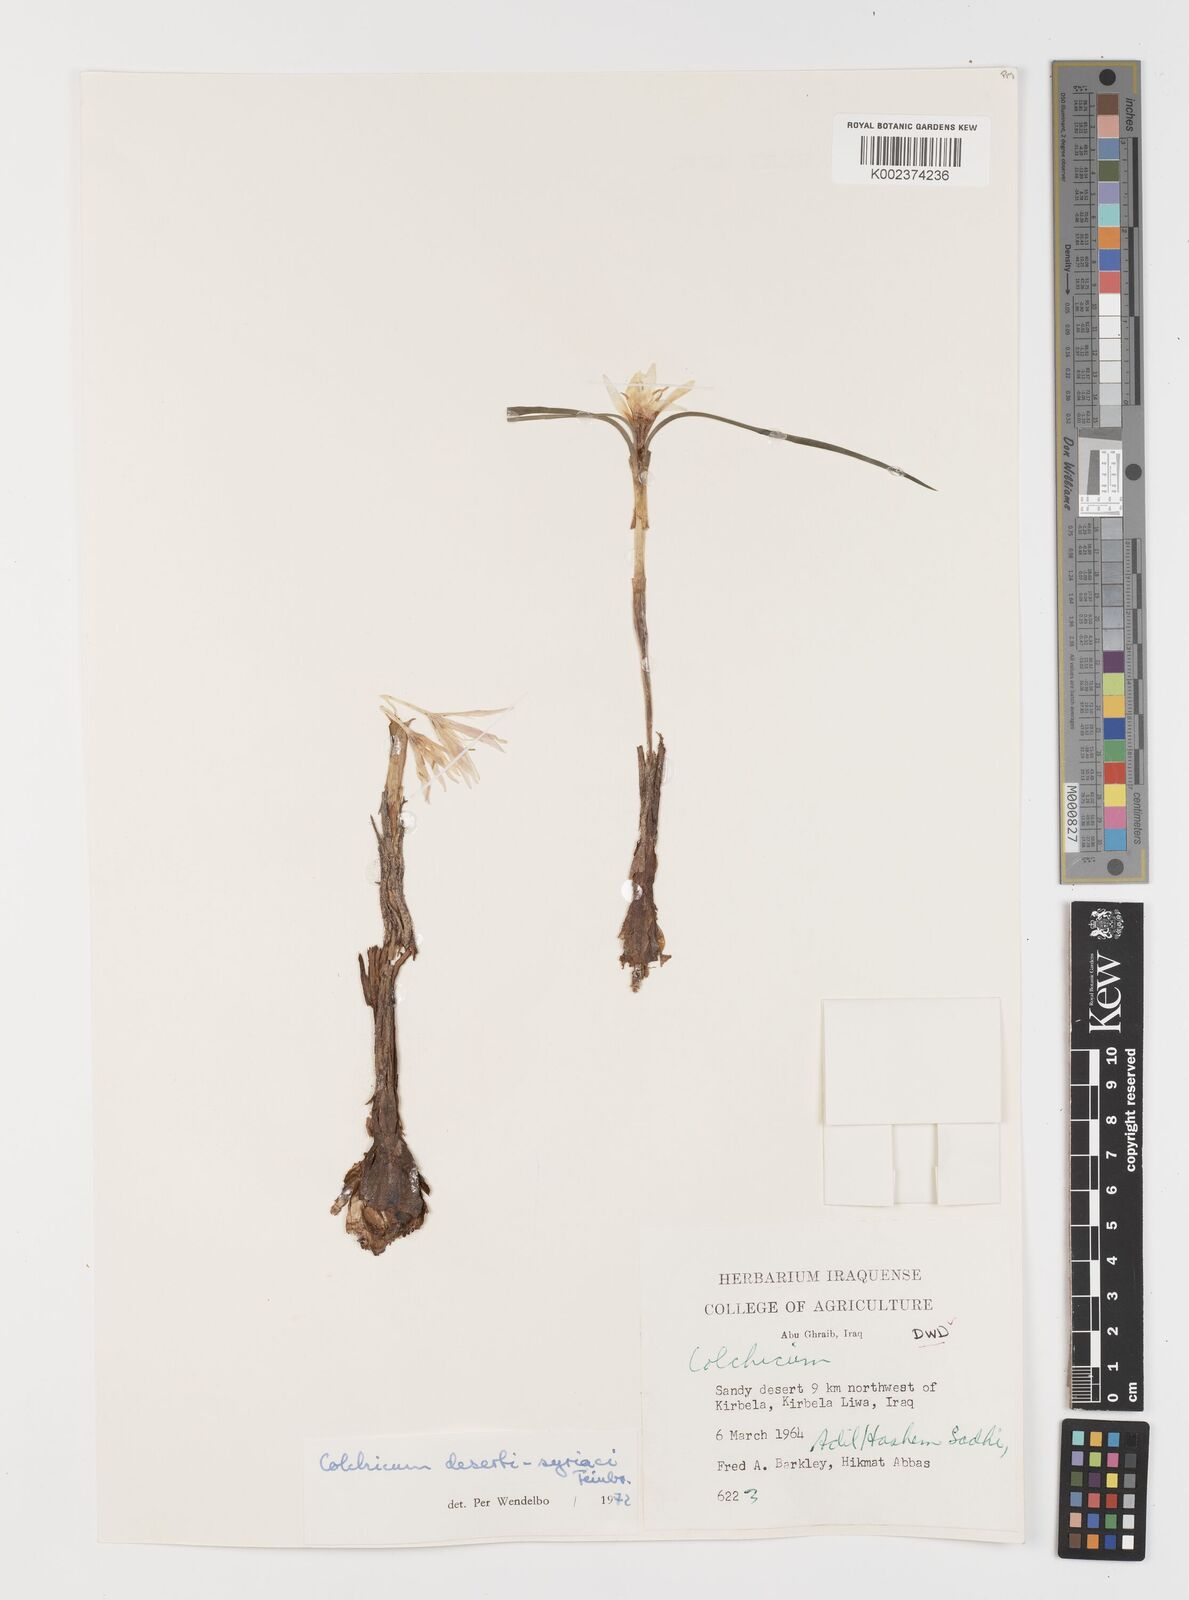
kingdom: Plantae
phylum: Tracheophyta
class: Liliopsida
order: Liliales
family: Colchicaceae
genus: Colchicum
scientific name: Colchicum schimperi
